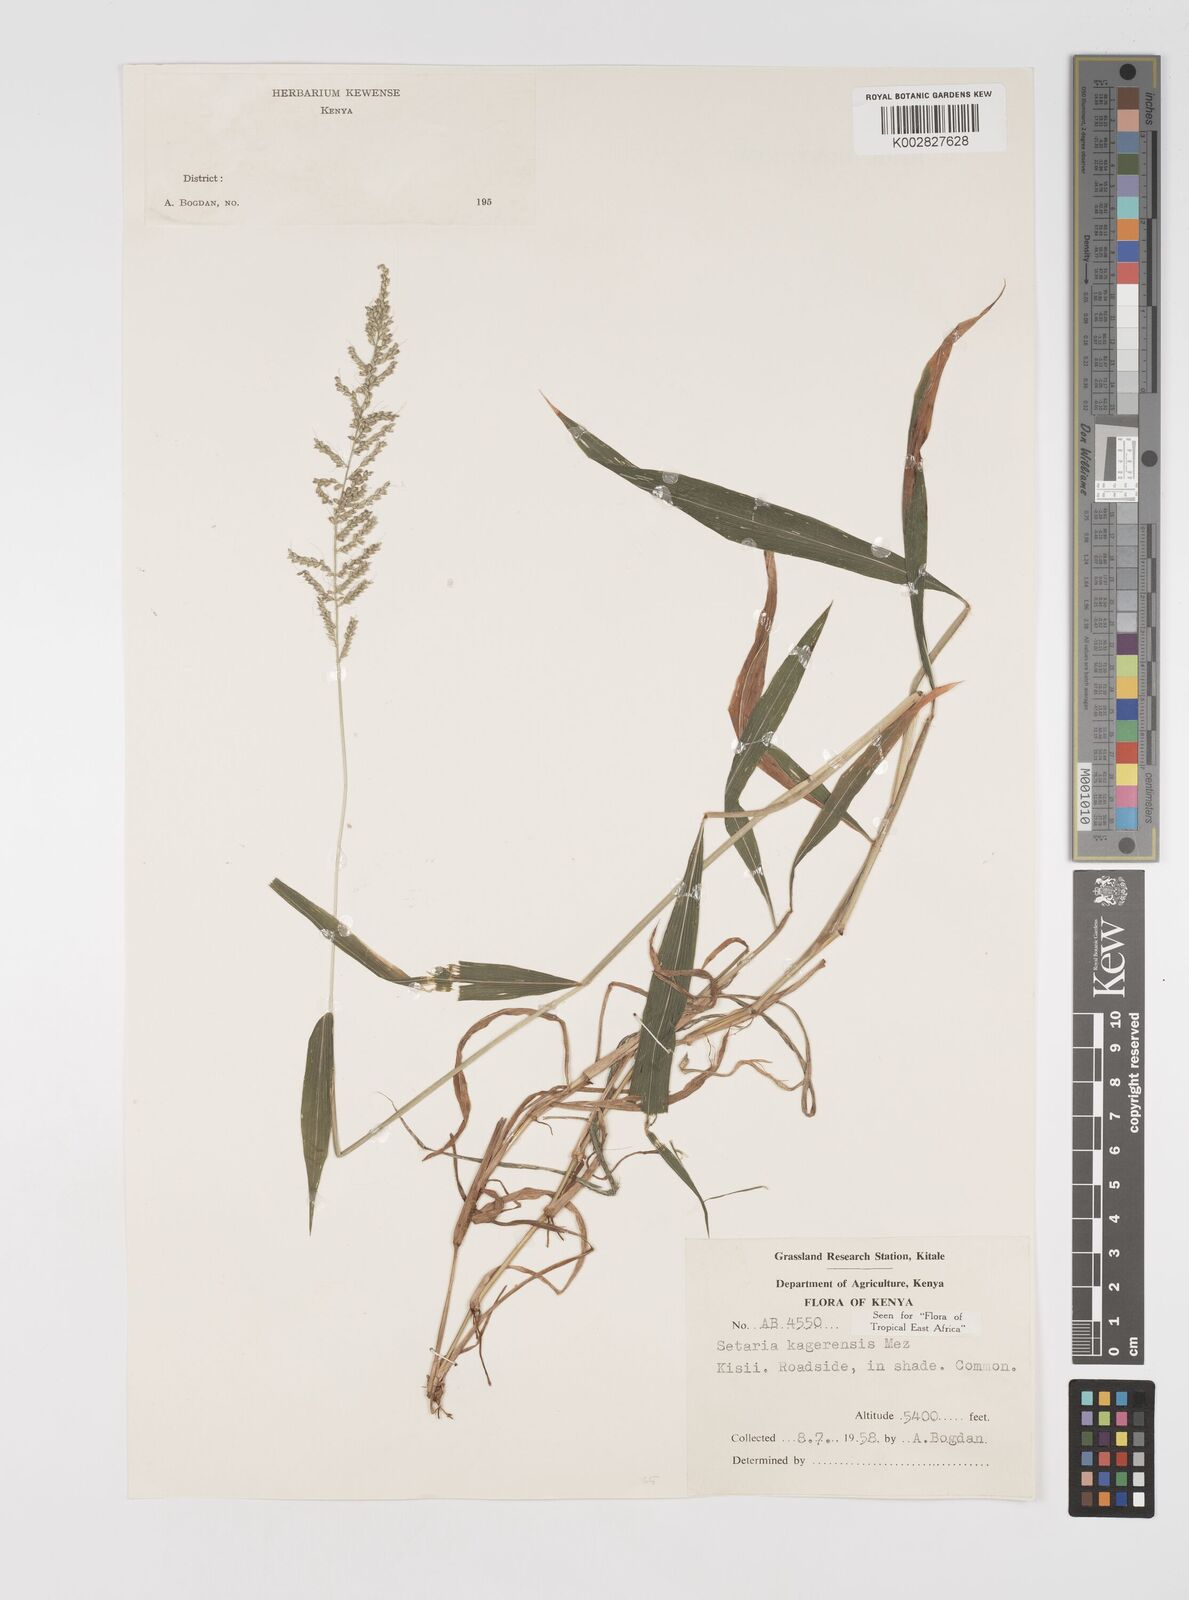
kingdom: Plantae
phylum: Tracheophyta
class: Liliopsida
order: Poales
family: Poaceae
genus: Setaria
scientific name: Setaria kagerensis
